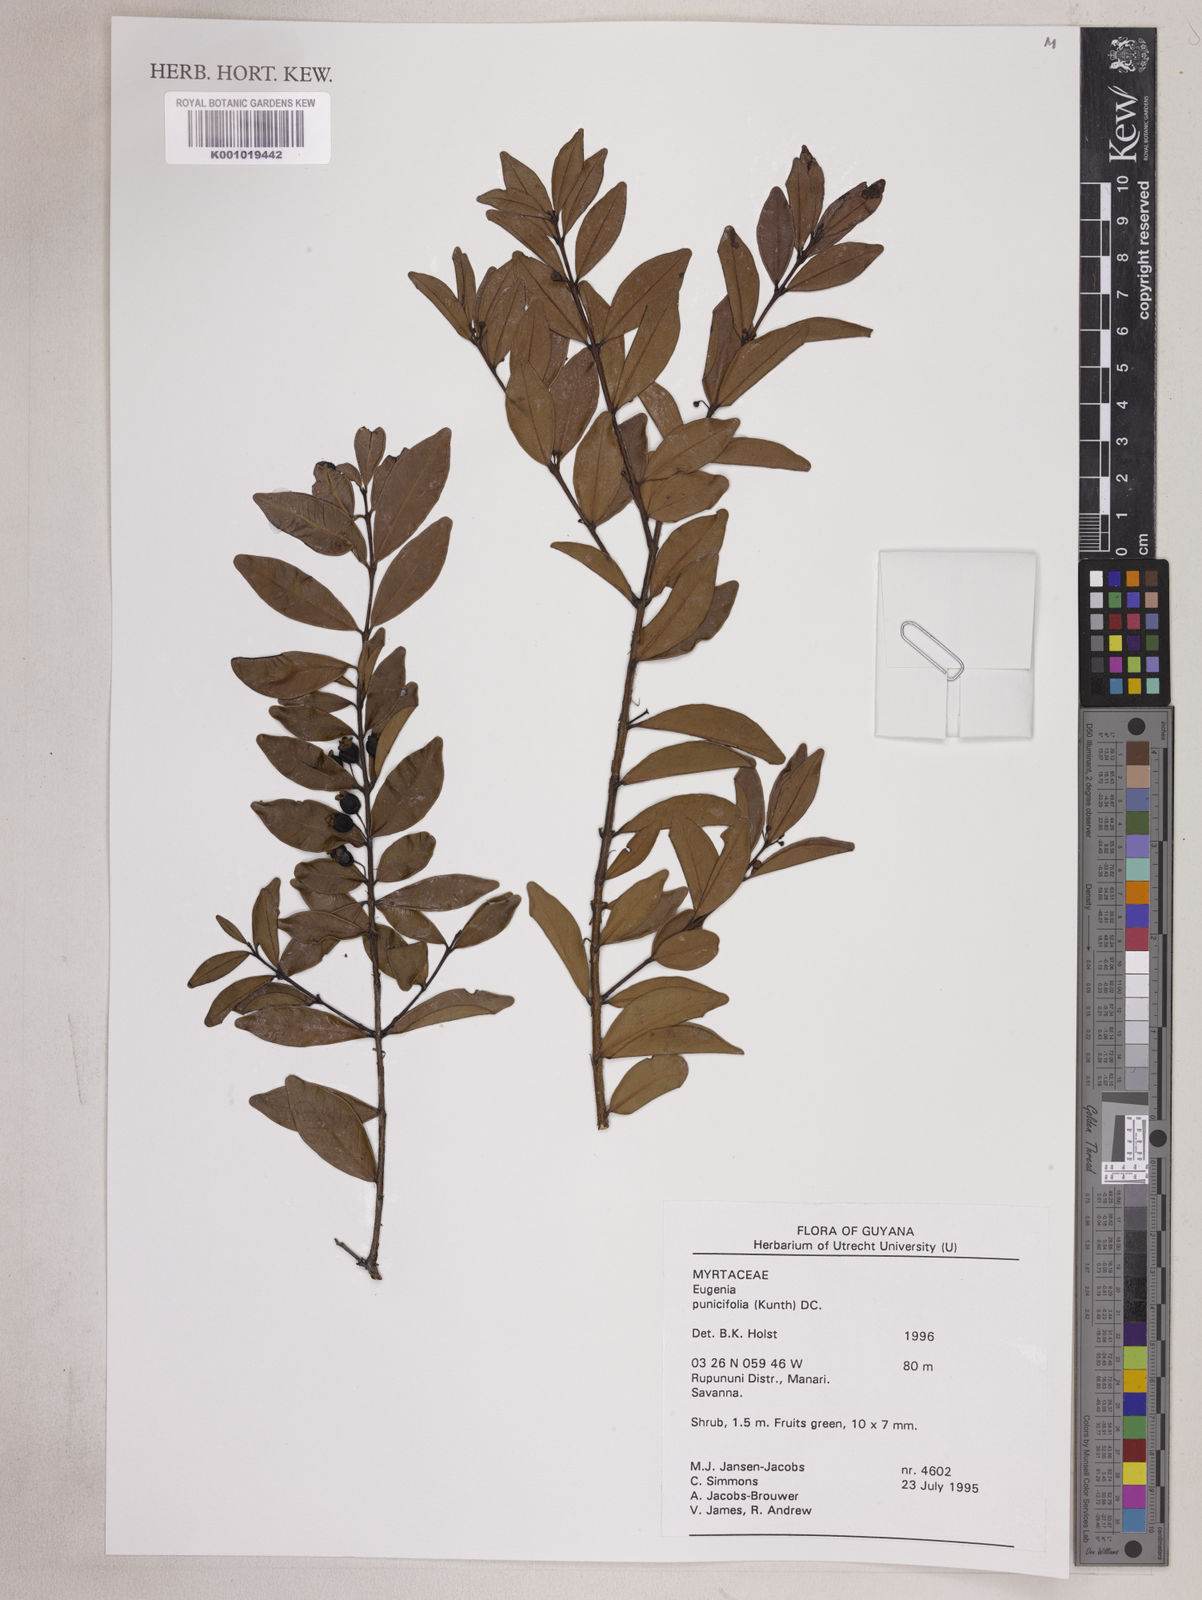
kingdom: Plantae
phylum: Tracheophyta
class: Magnoliopsida
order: Myrtales
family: Myrtaceae
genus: Eugenia
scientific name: Eugenia punicifolia
